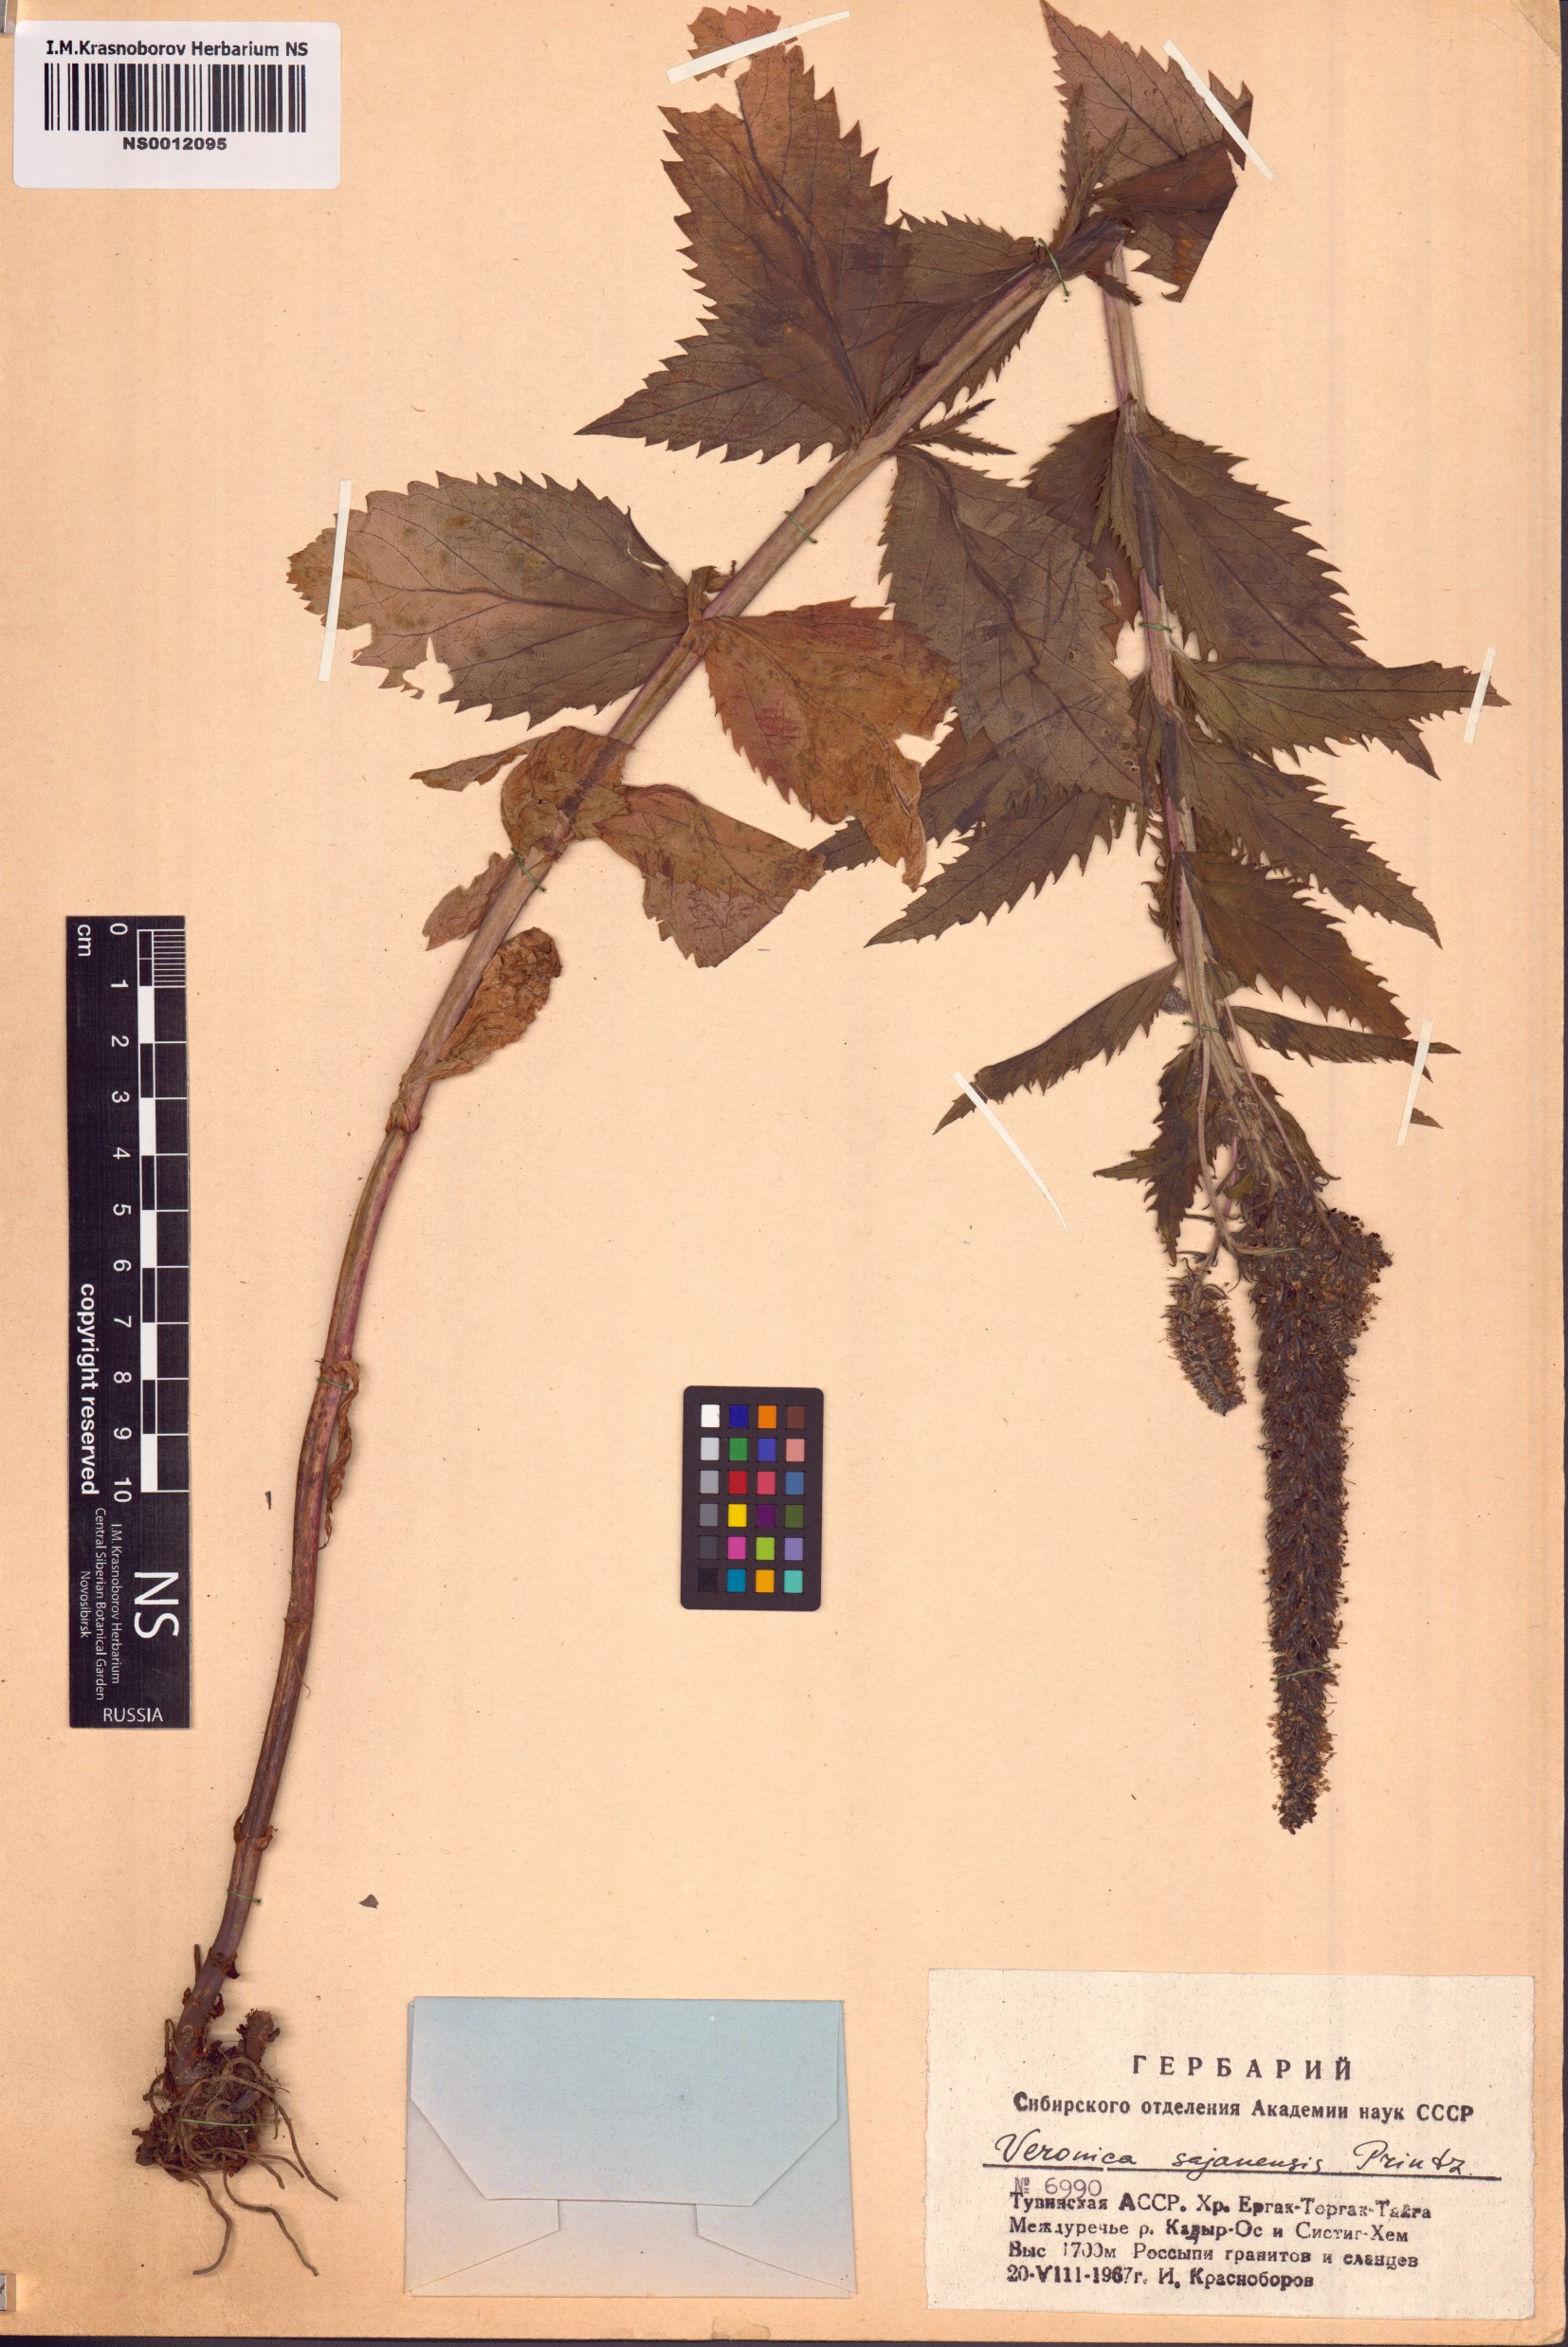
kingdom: Plantae
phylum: Tracheophyta
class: Magnoliopsida
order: Lamiales
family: Plantaginaceae
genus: Veronica
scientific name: Veronica sajanensis
